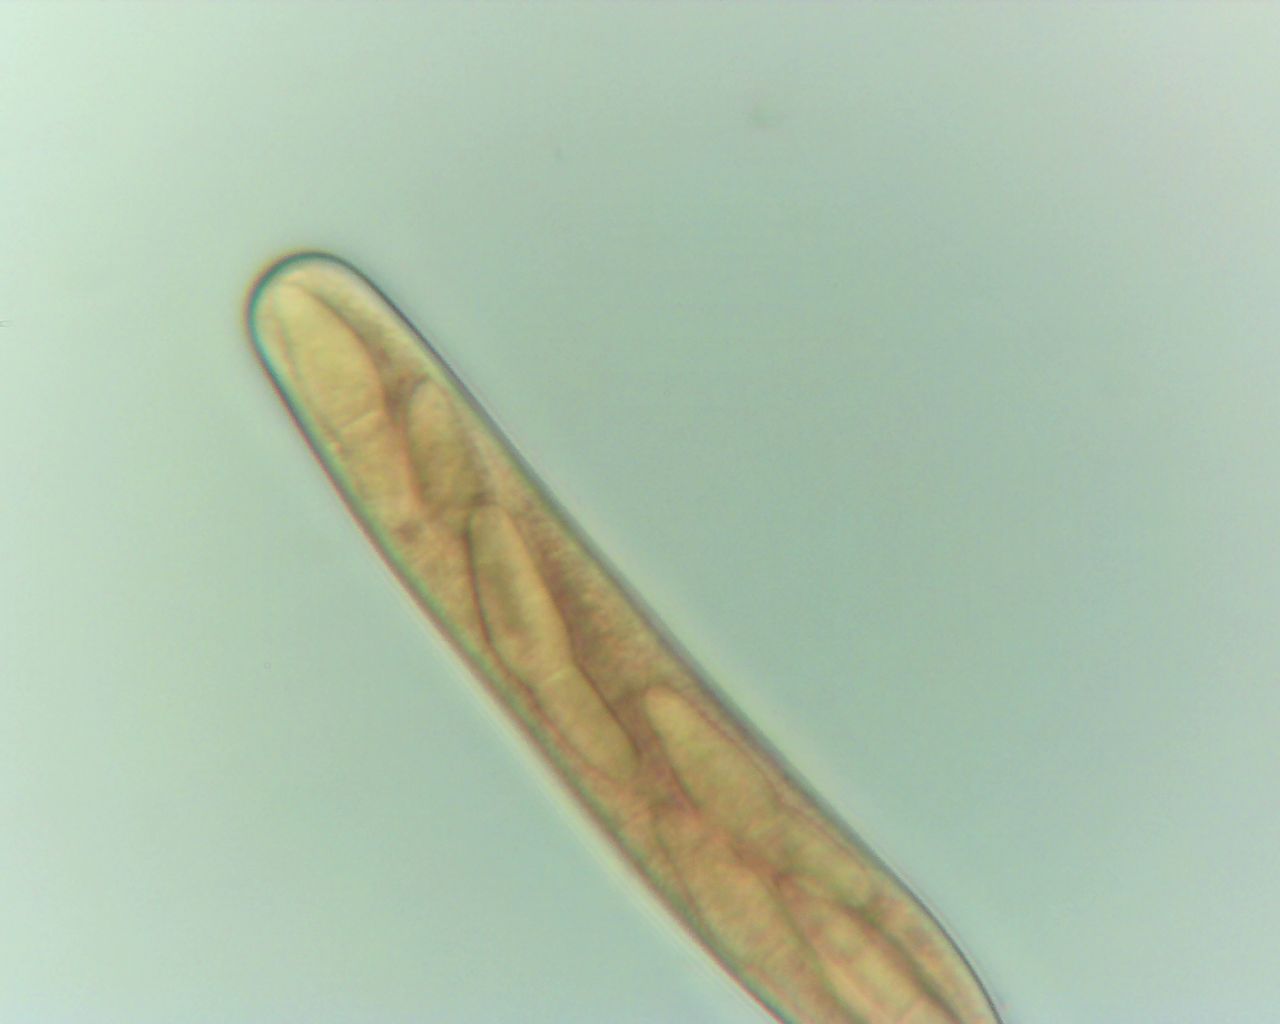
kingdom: Fungi
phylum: Ascomycota
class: Dothideomycetes
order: Botryosphaeriales
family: Botryosphaeriaceae
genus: Dothiora
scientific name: Dothiora ribesia
